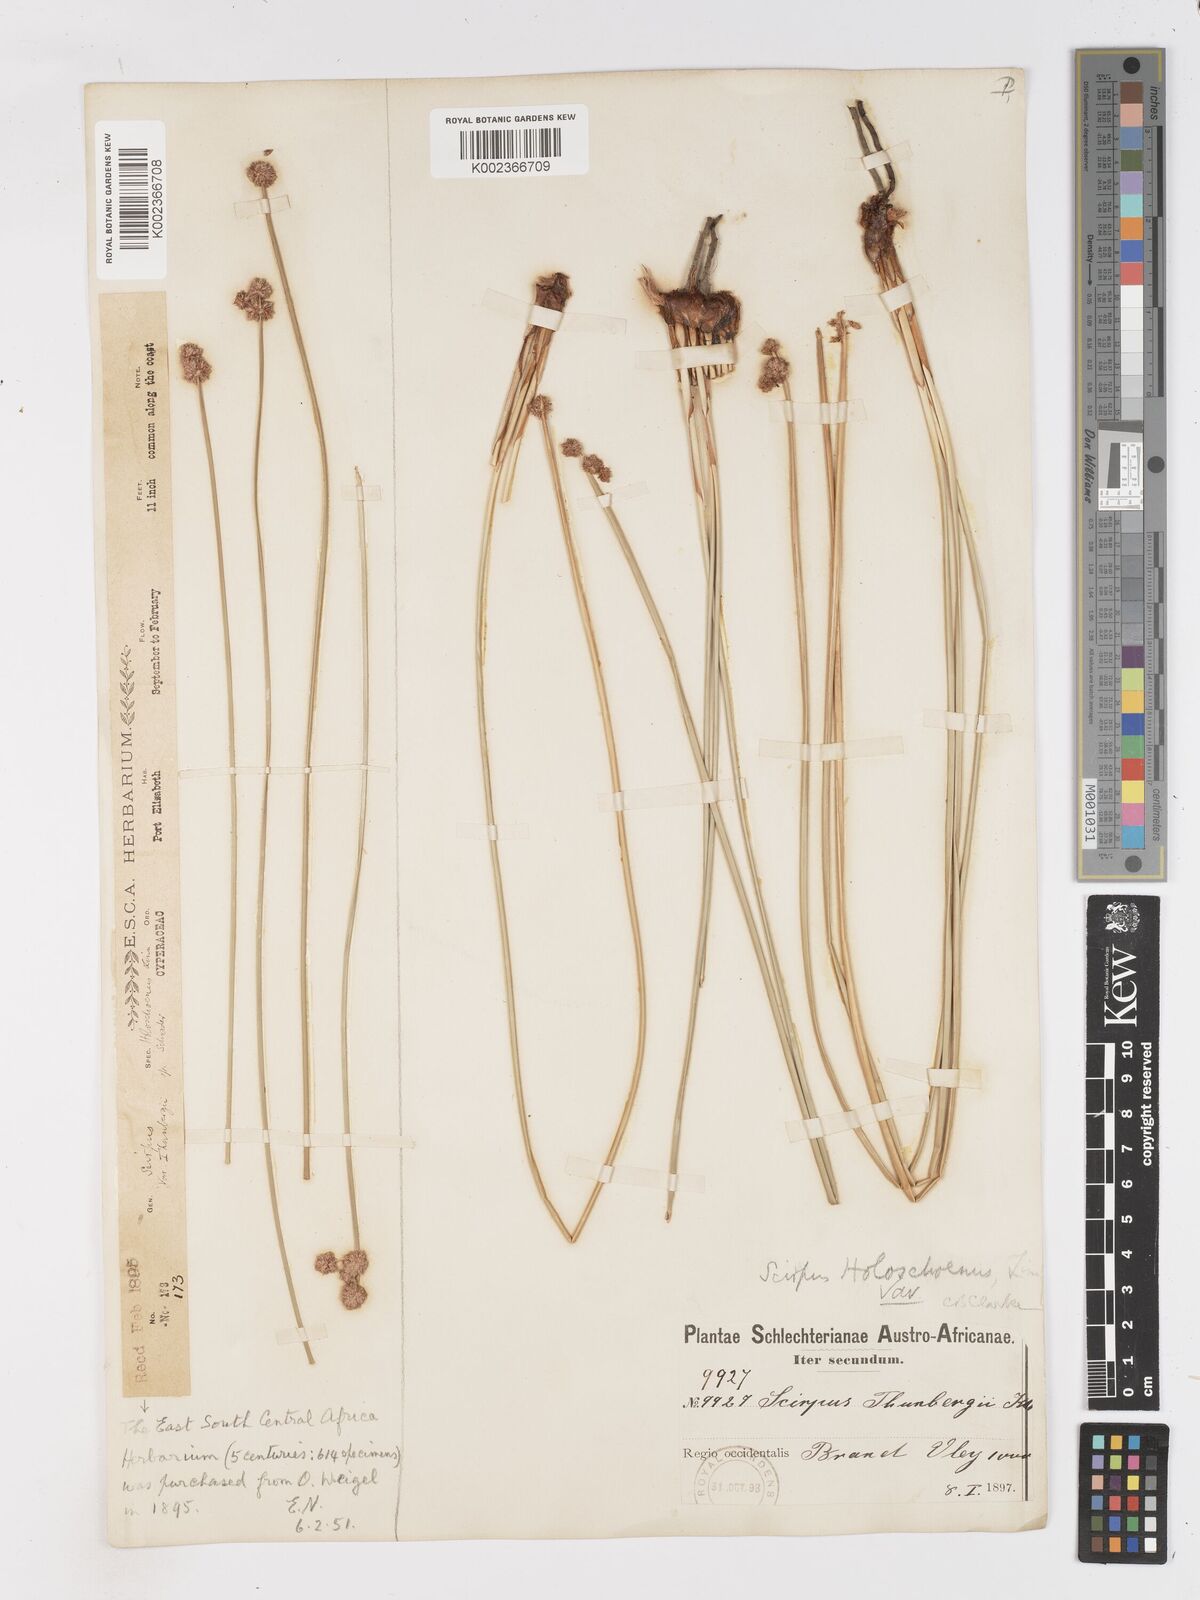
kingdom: Plantae
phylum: Tracheophyta
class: Liliopsida
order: Poales
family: Cyperaceae
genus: Scirpoides
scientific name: Scirpoides holoschoenus
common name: Round-headed club-rush
